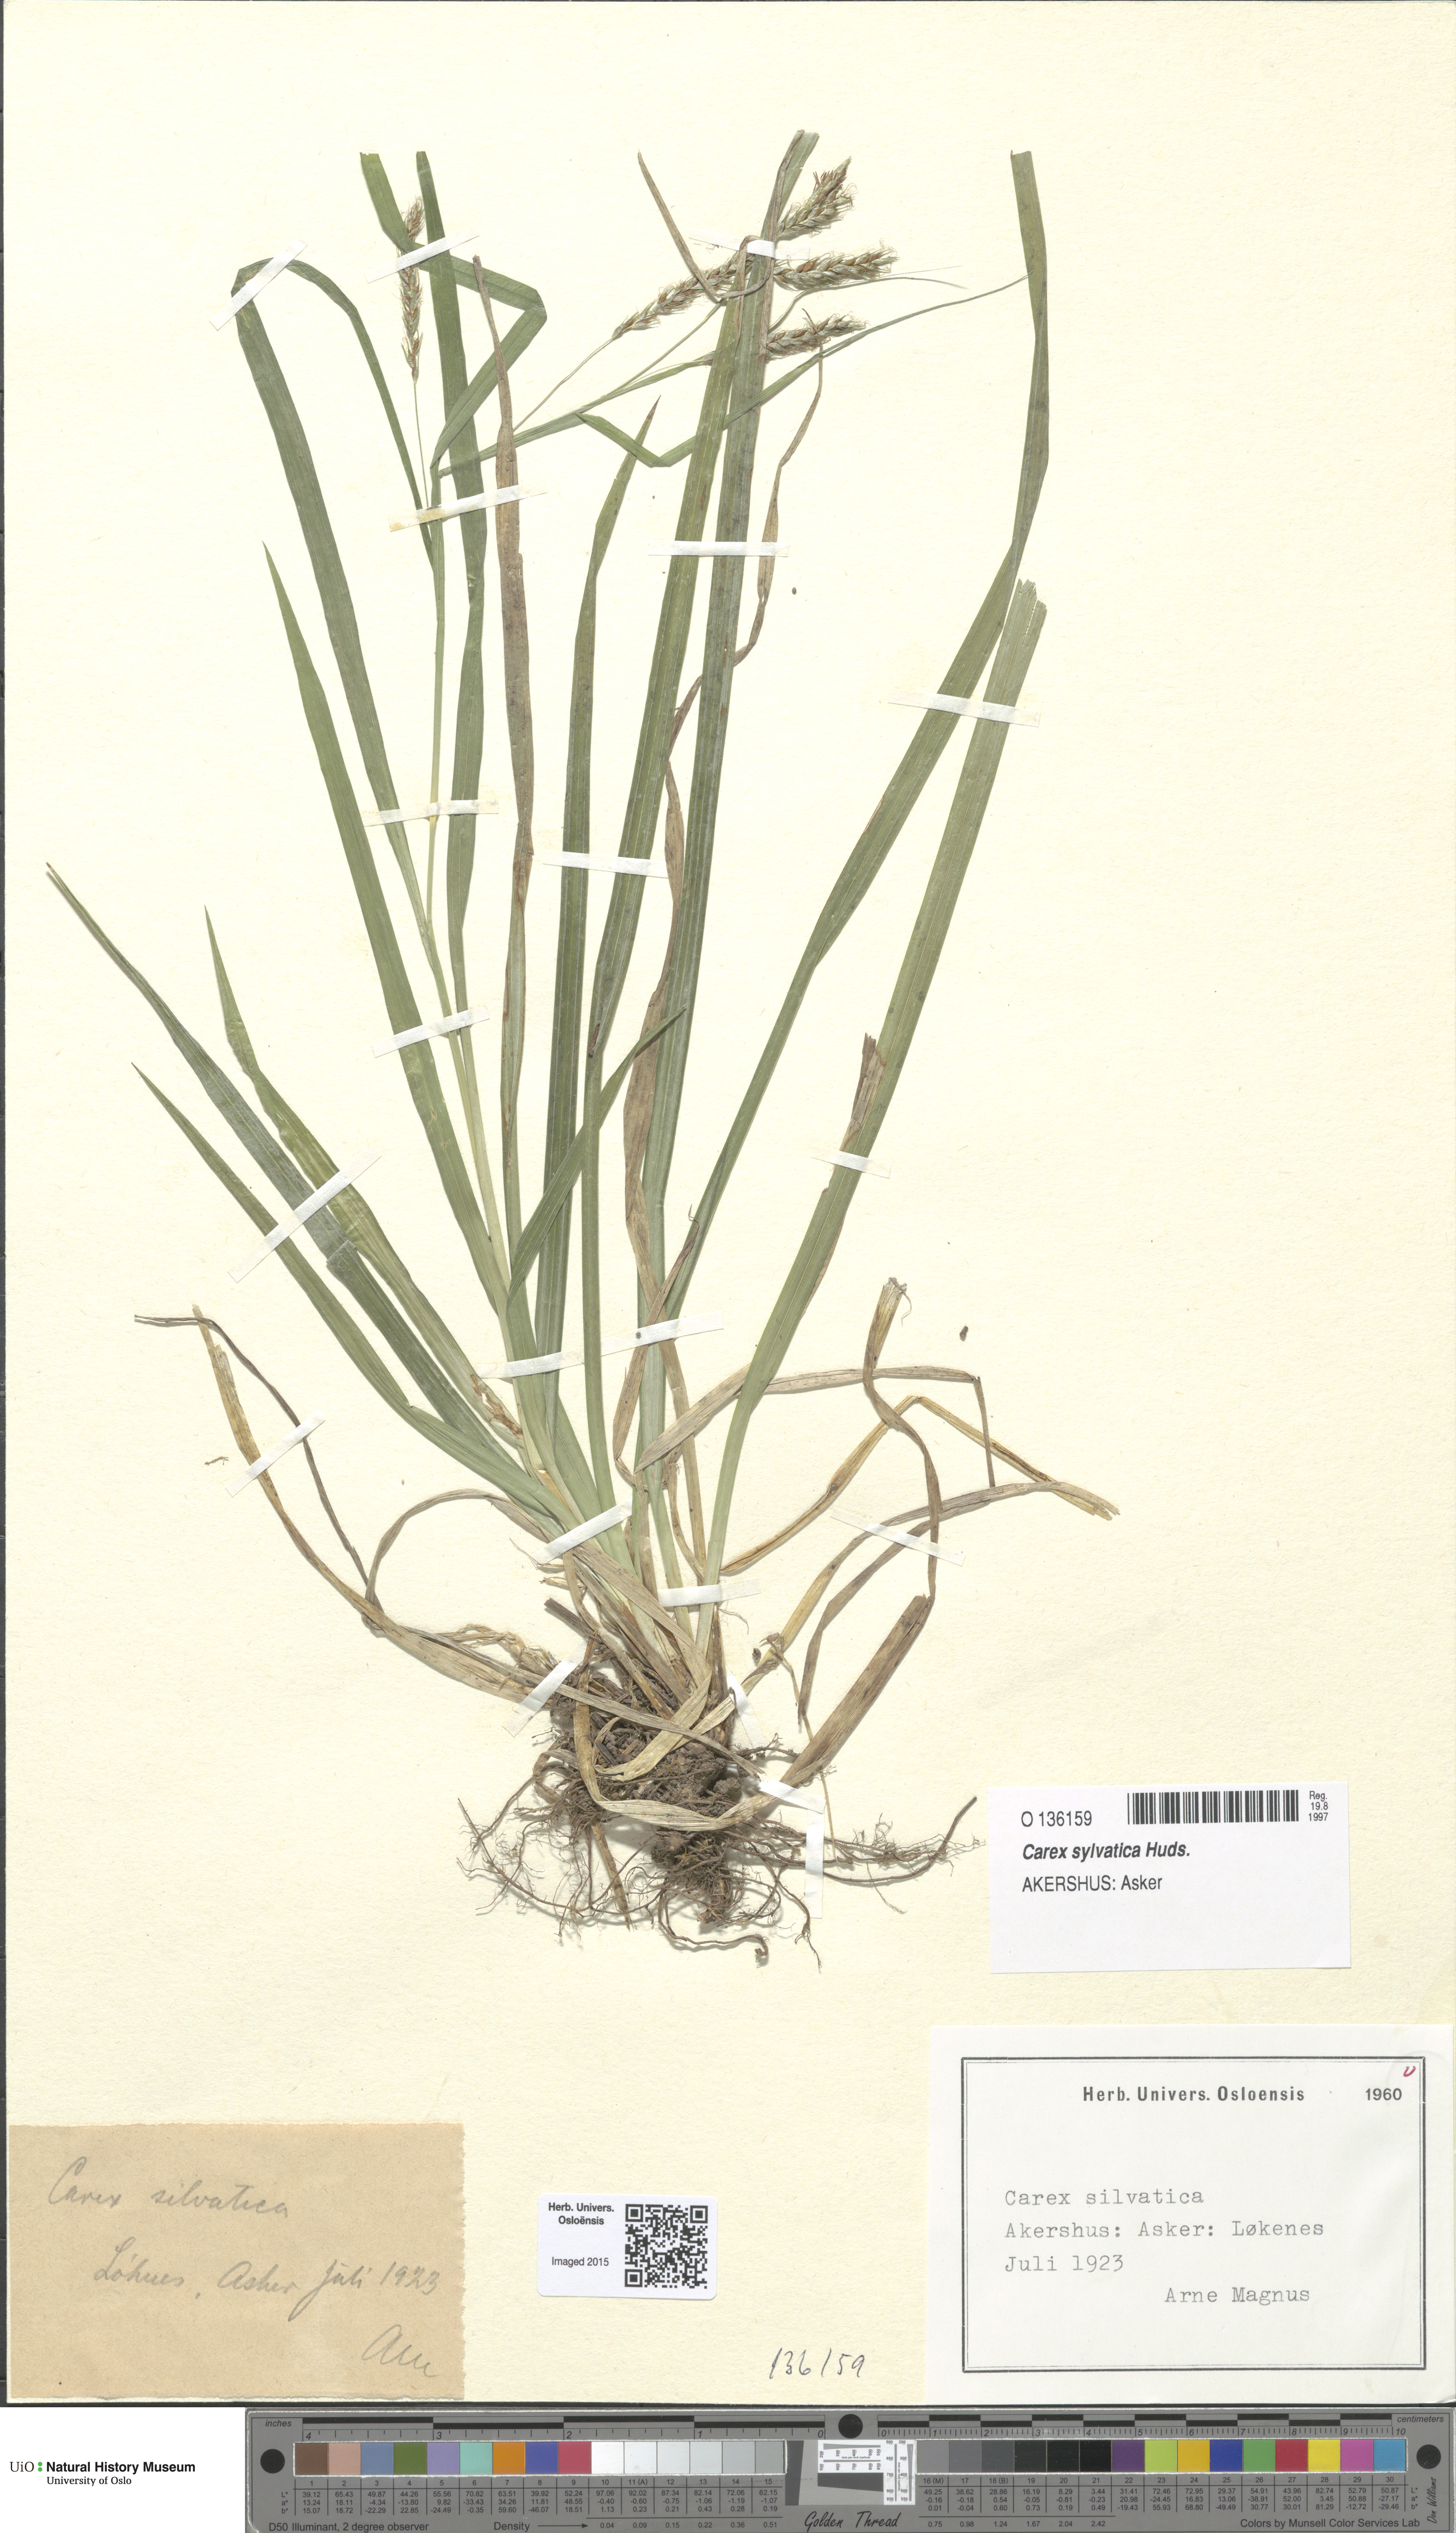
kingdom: Plantae
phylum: Tracheophyta
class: Liliopsida
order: Poales
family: Cyperaceae
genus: Carex
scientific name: Carex sylvatica
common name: Wood-sedge
